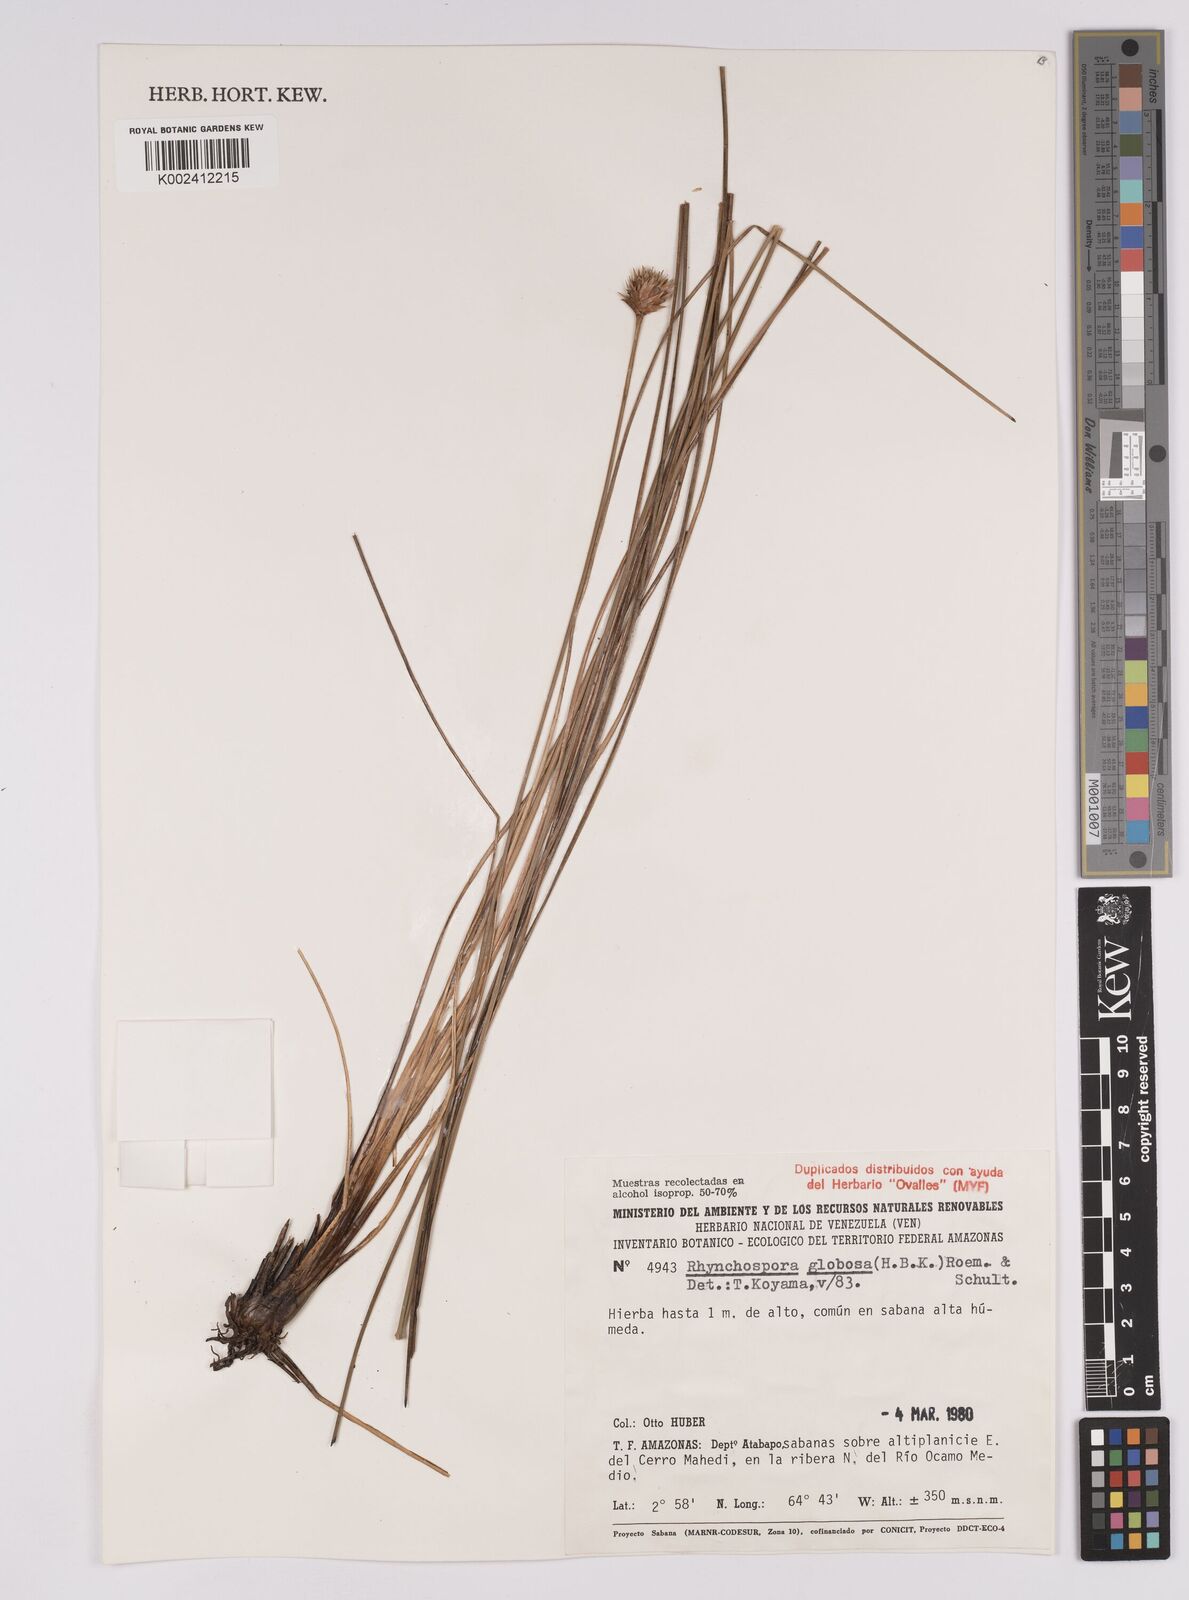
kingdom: Plantae
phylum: Tracheophyta
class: Liliopsida
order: Poales
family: Cyperaceae
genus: Rhynchospora
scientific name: Rhynchospora globosa
